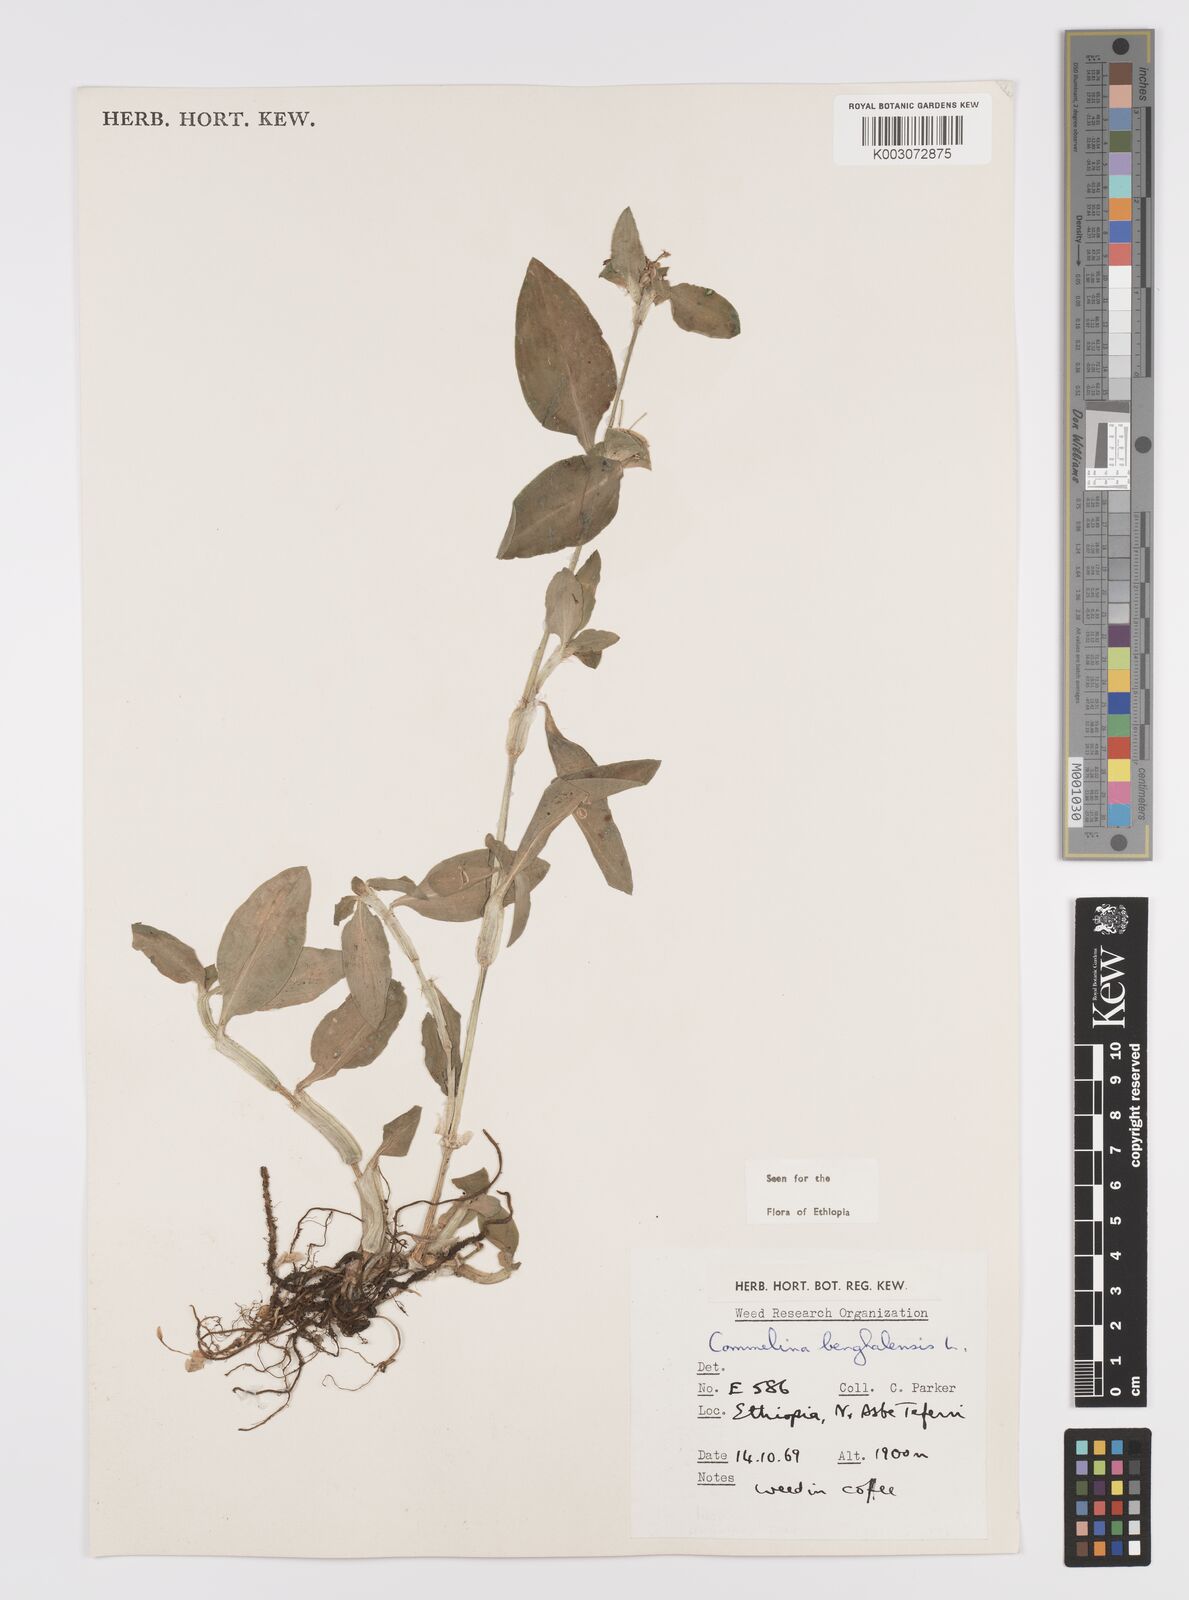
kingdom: Plantae
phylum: Tracheophyta
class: Liliopsida
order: Commelinales
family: Commelinaceae
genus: Commelina
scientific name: Commelina benghalensis
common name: Jio
